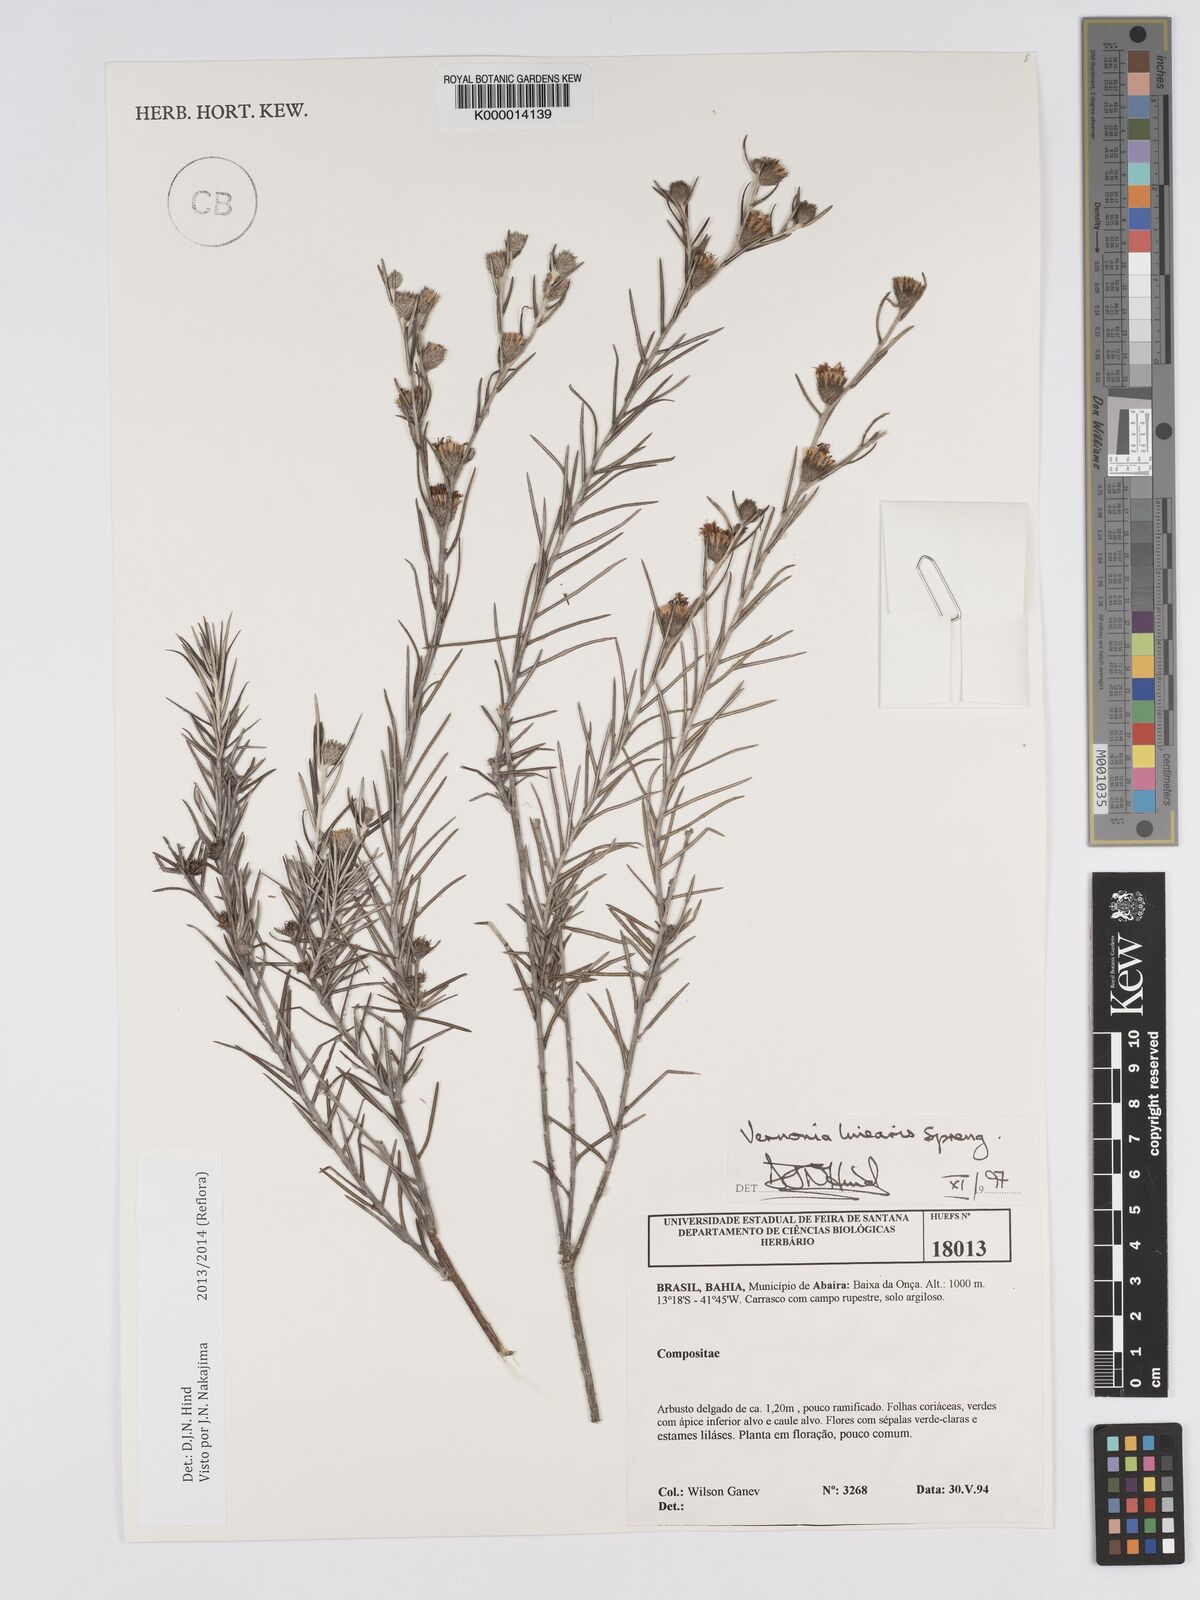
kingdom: Plantae
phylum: Tracheophyta
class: Magnoliopsida
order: Asterales
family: Asteraceae
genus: Lessingianthus
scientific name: Lessingianthus linearis
